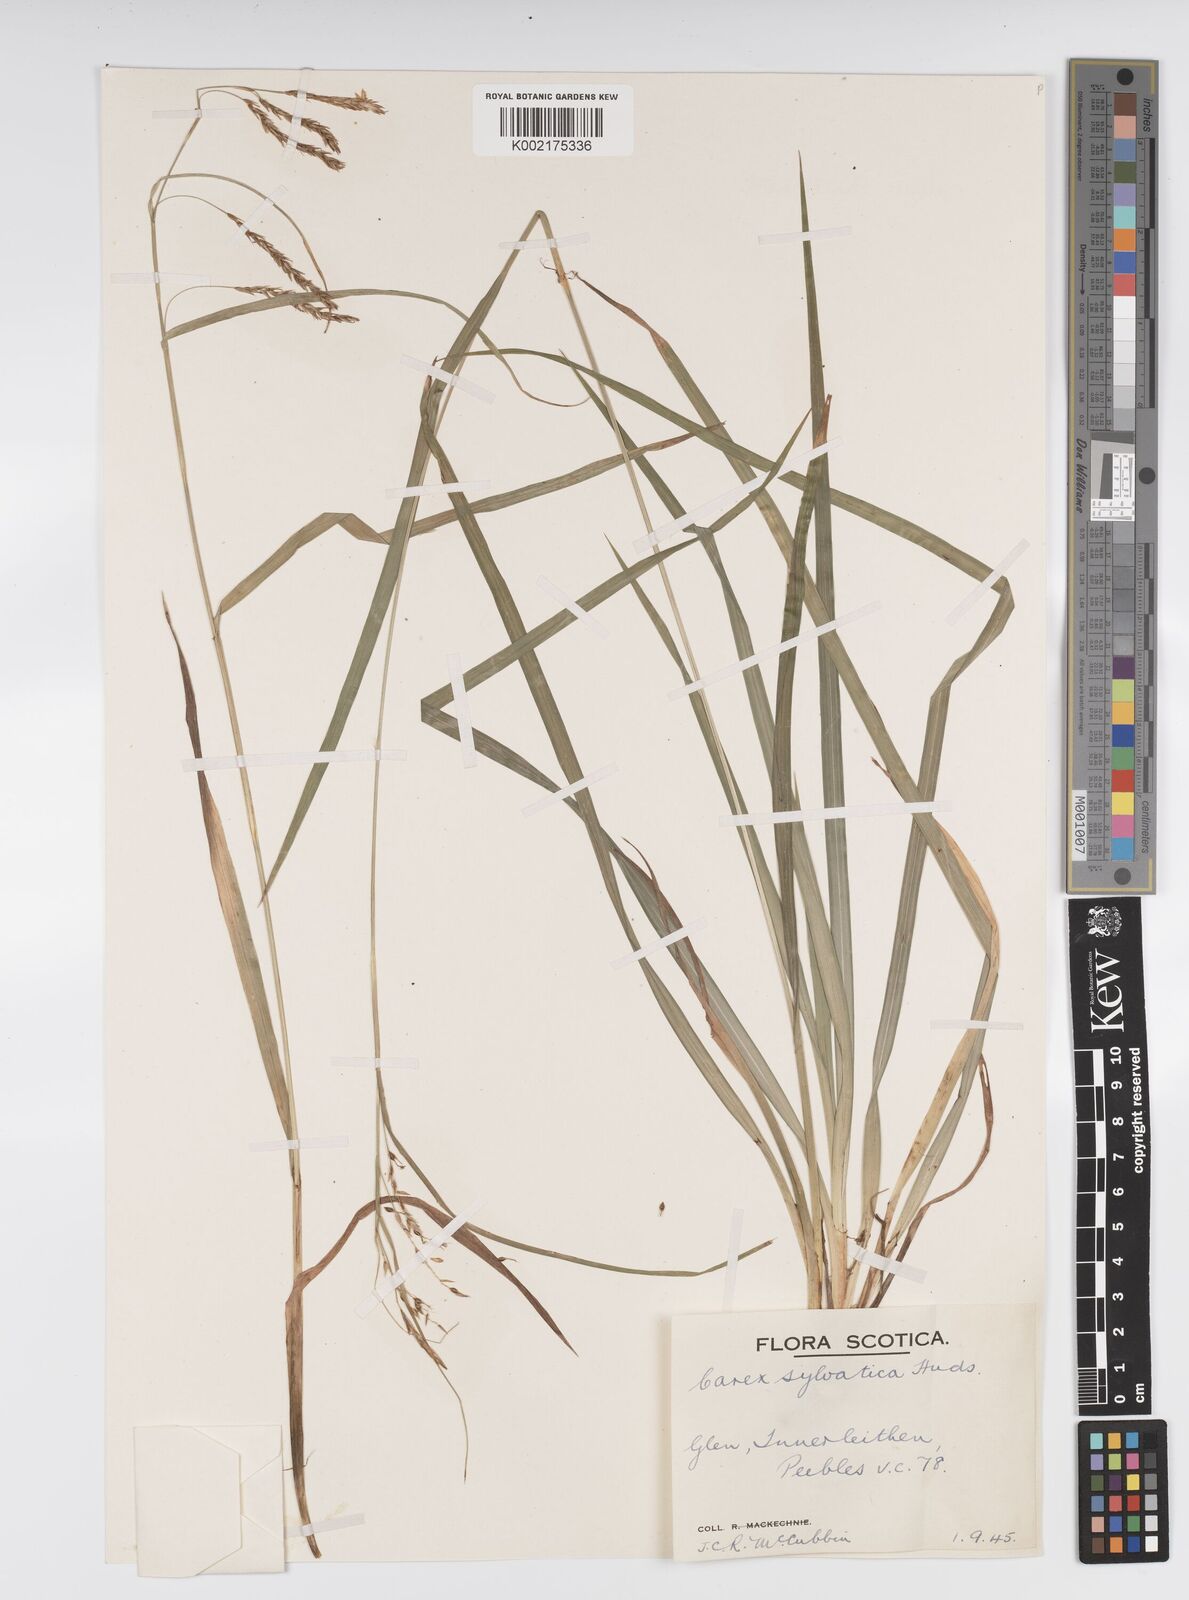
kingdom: Plantae
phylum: Tracheophyta
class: Liliopsida
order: Poales
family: Cyperaceae
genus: Carex
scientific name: Carex sylvatica
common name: Wood-sedge
